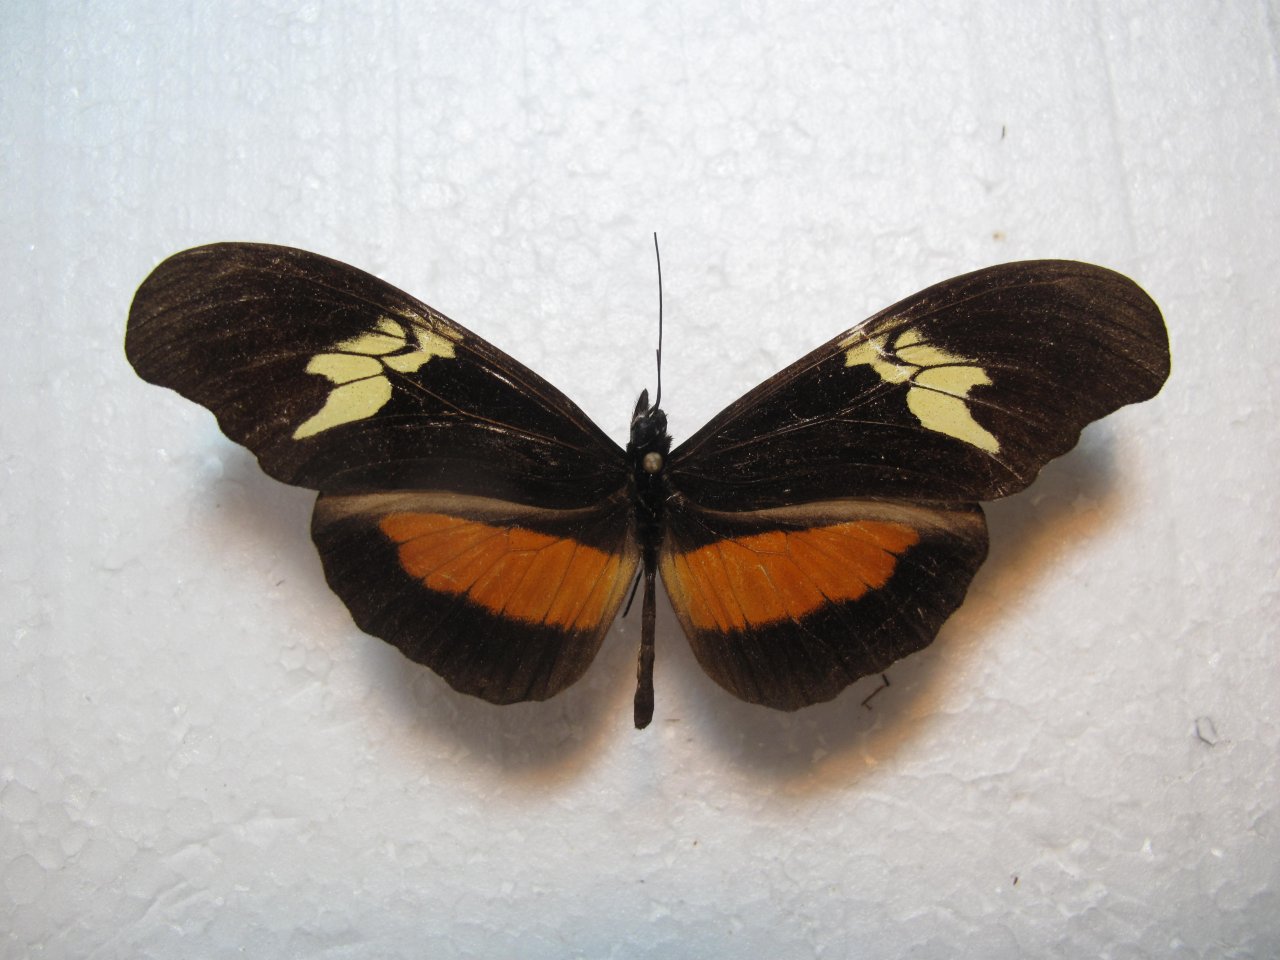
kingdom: Animalia
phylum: Arthropoda
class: Insecta
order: Lepidoptera
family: Nymphalidae
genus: Heliconius
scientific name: Heliconius hortense
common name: Mexican Longwing
